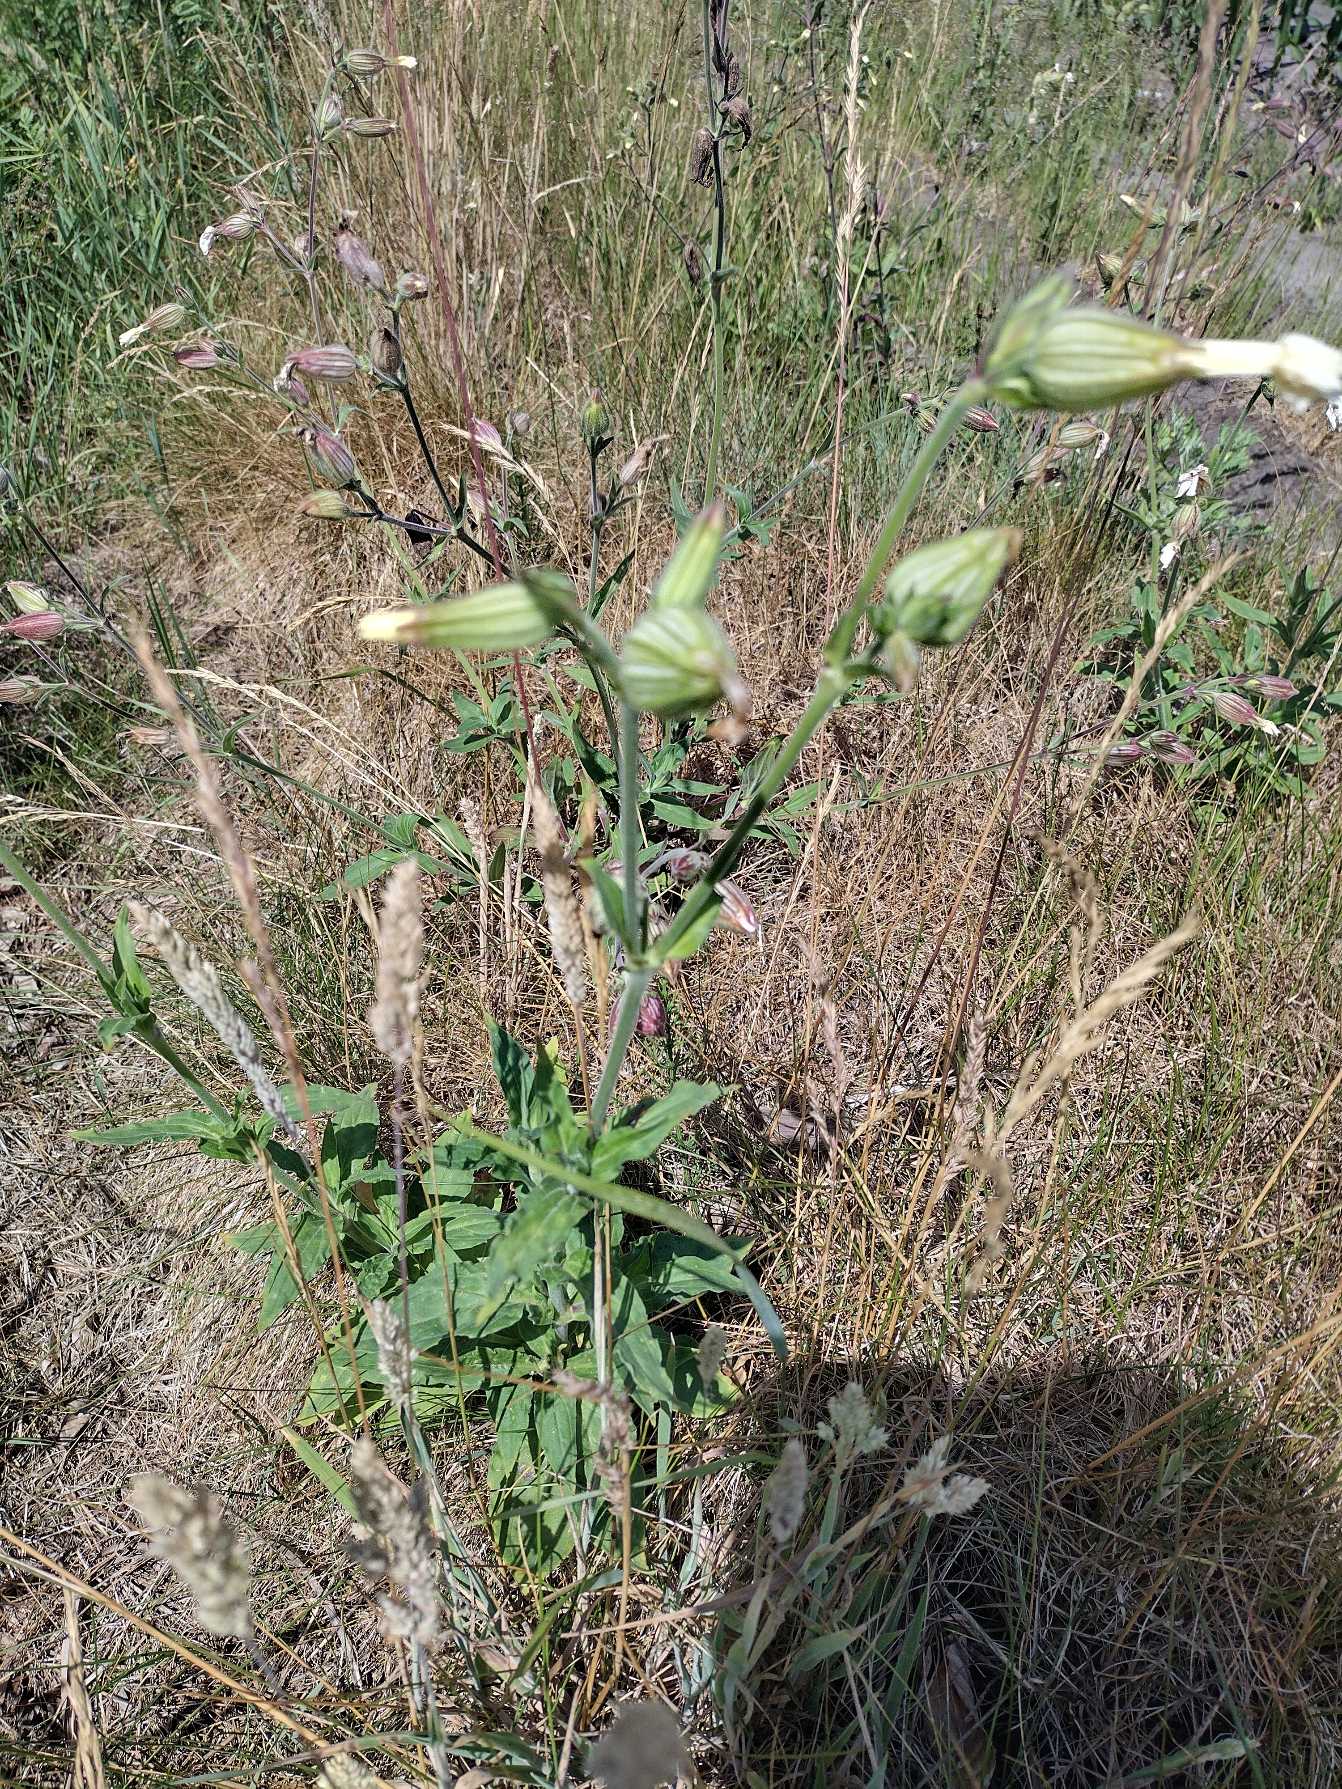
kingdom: Plantae
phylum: Tracheophyta
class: Magnoliopsida
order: Caryophyllales
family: Caryophyllaceae
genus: Silene
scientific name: Silene latifolia
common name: Aftenpragtstjerne
